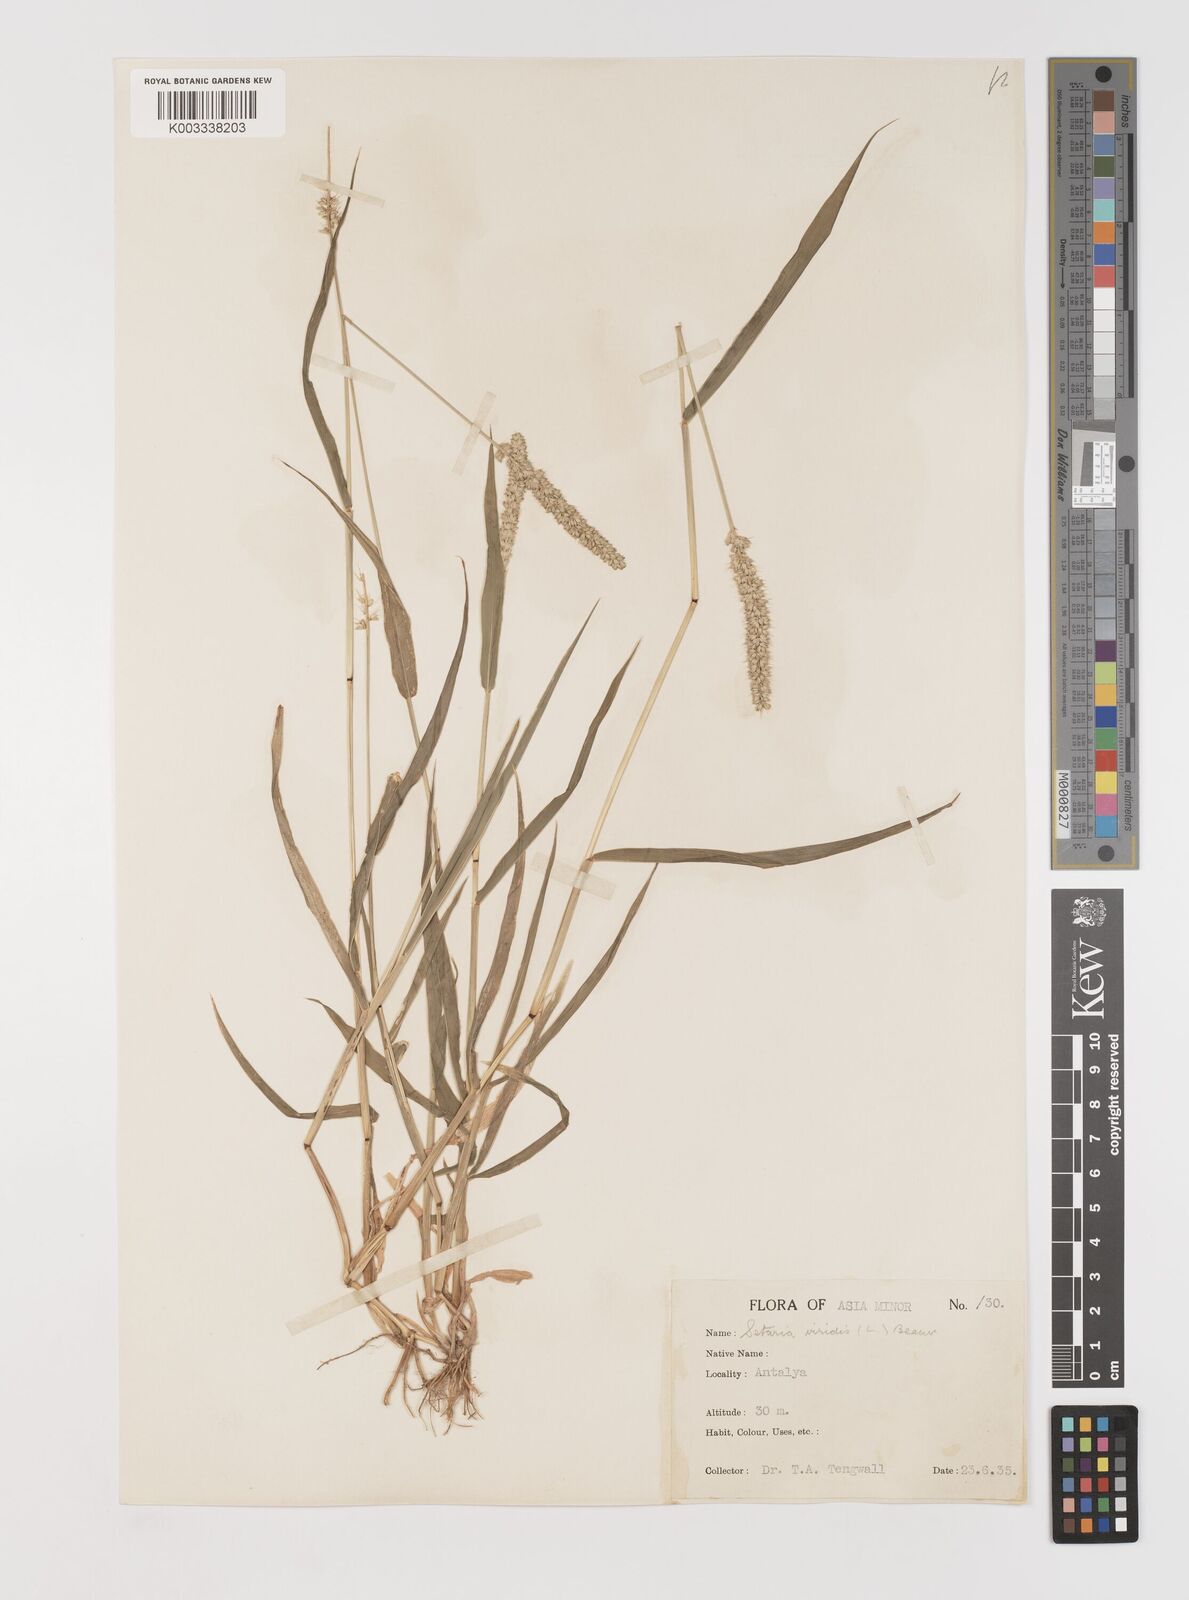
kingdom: Plantae
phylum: Tracheophyta
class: Liliopsida
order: Poales
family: Poaceae
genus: Setaria
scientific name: Setaria verticillata
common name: Hooked bristlegrass
